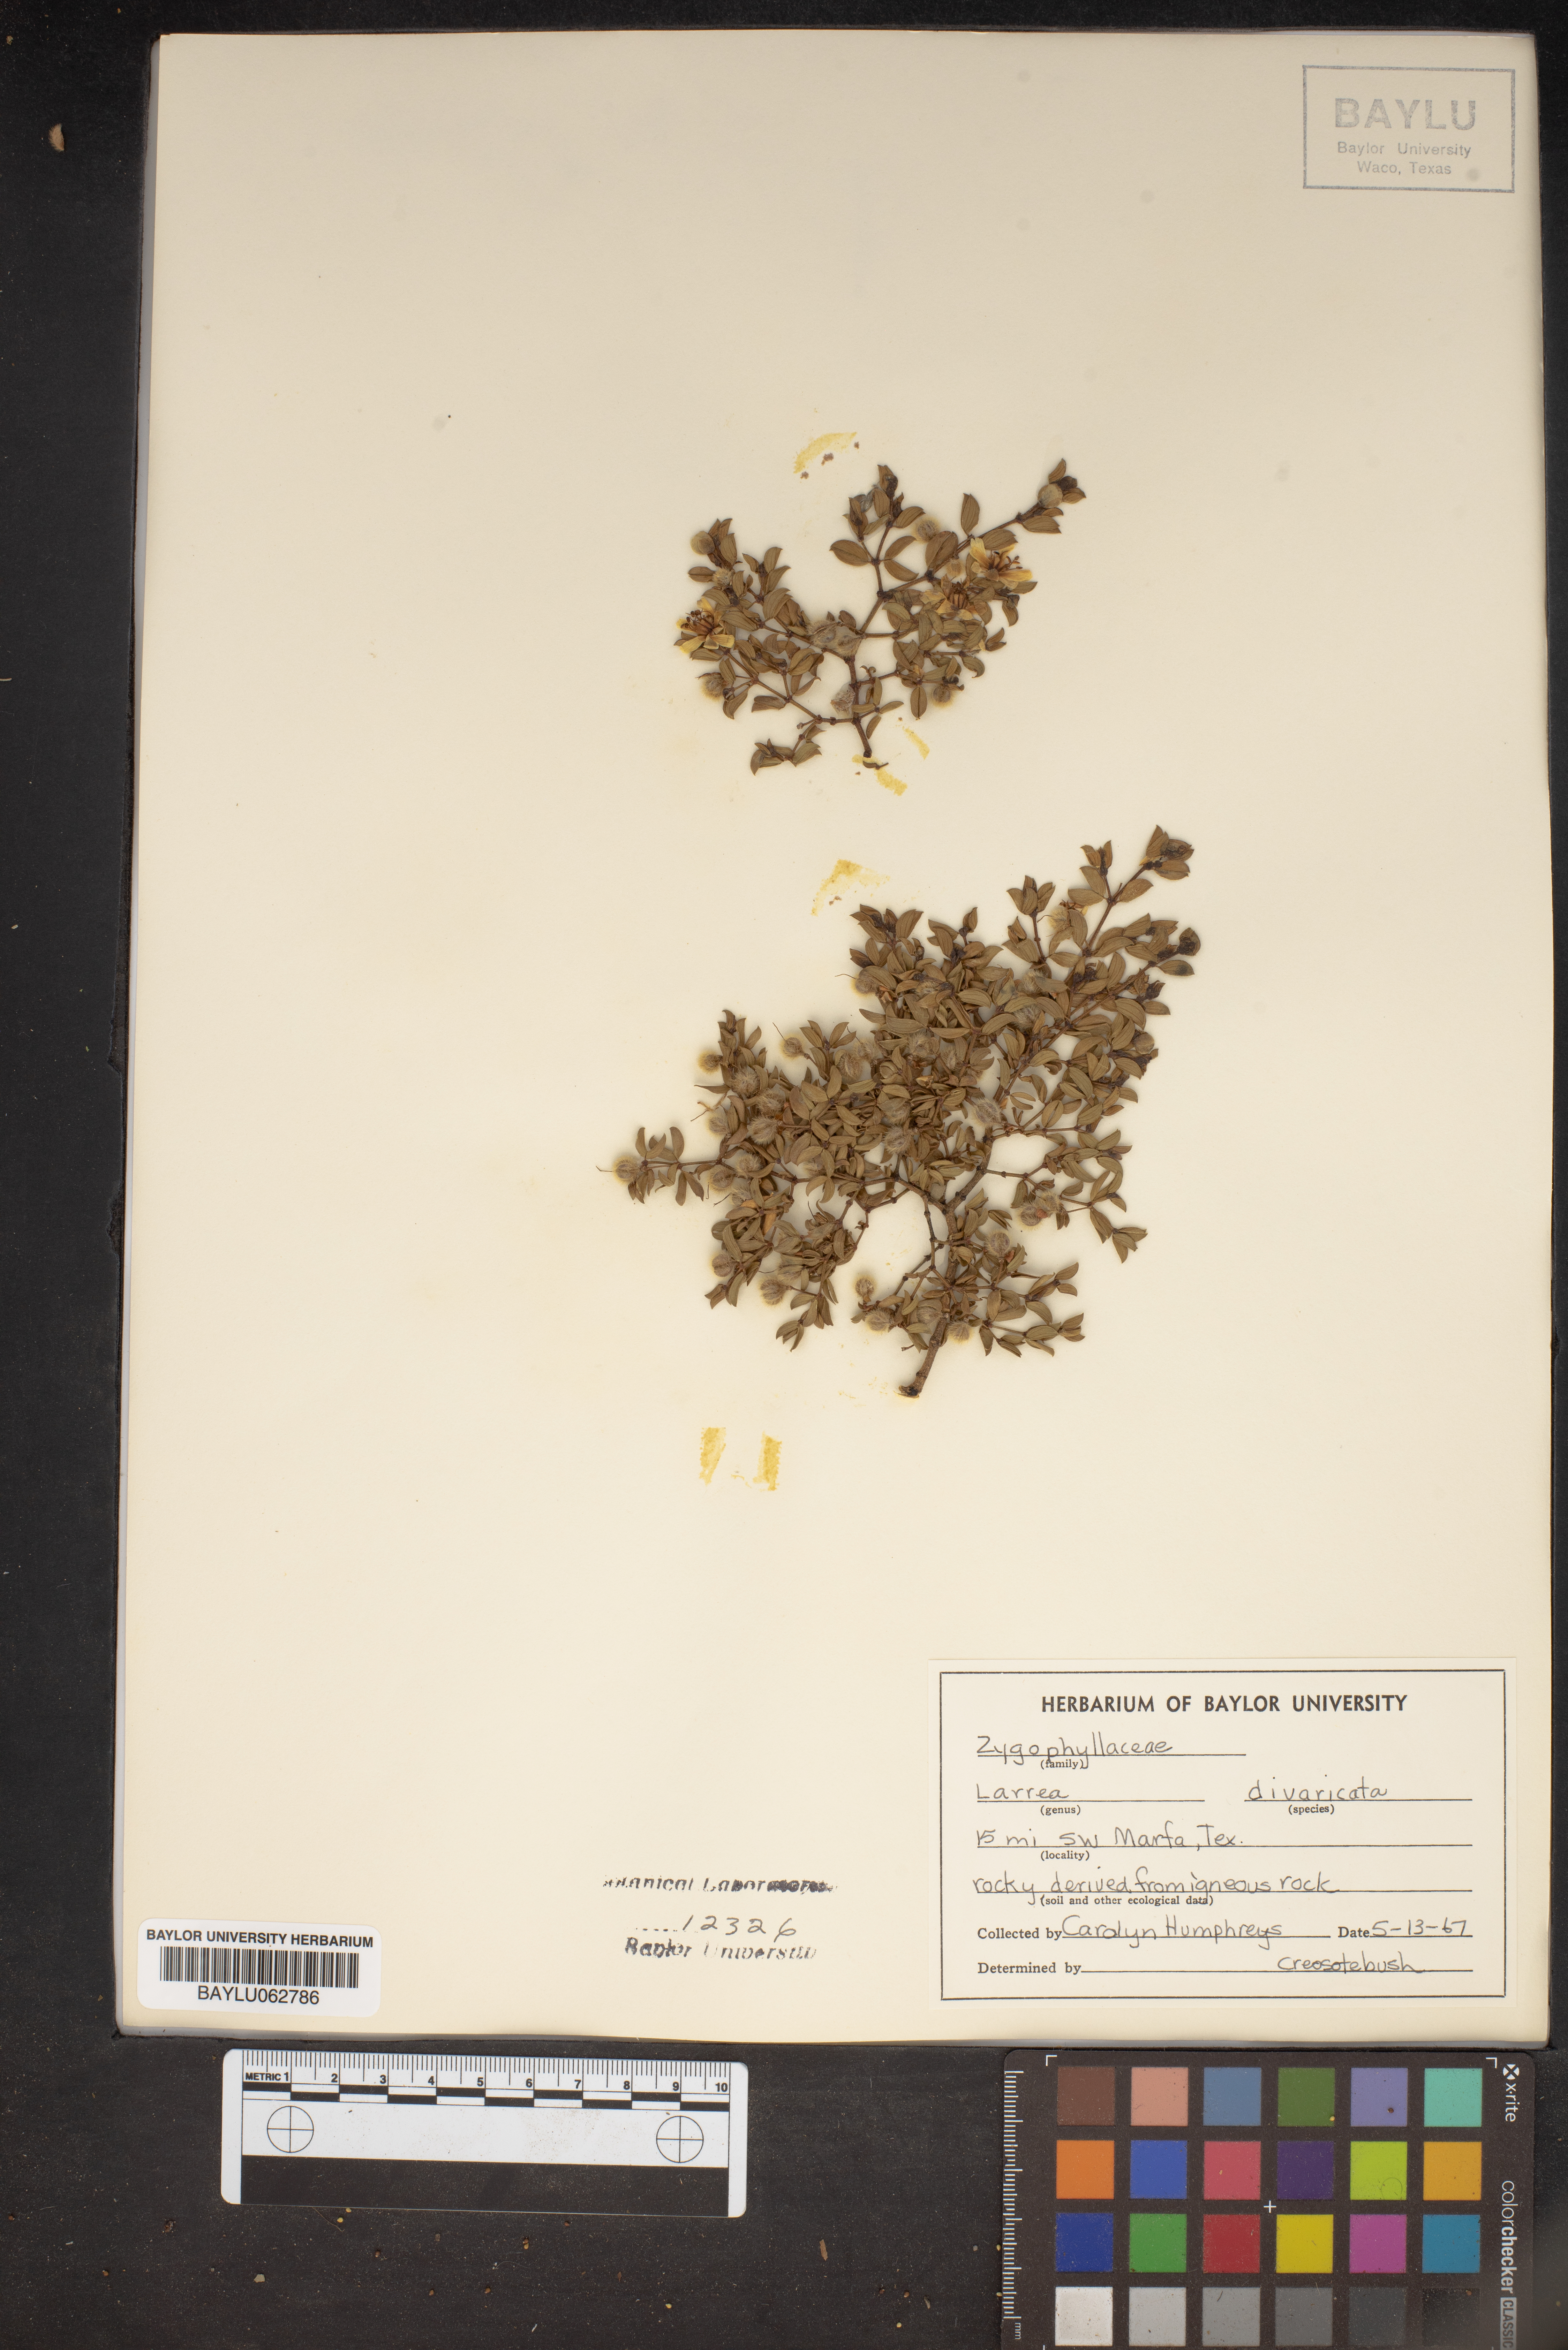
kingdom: Plantae
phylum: Tracheophyta
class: Magnoliopsida
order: Zygophyllales
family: Zygophyllaceae
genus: Larrea
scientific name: Larrea divaricata
